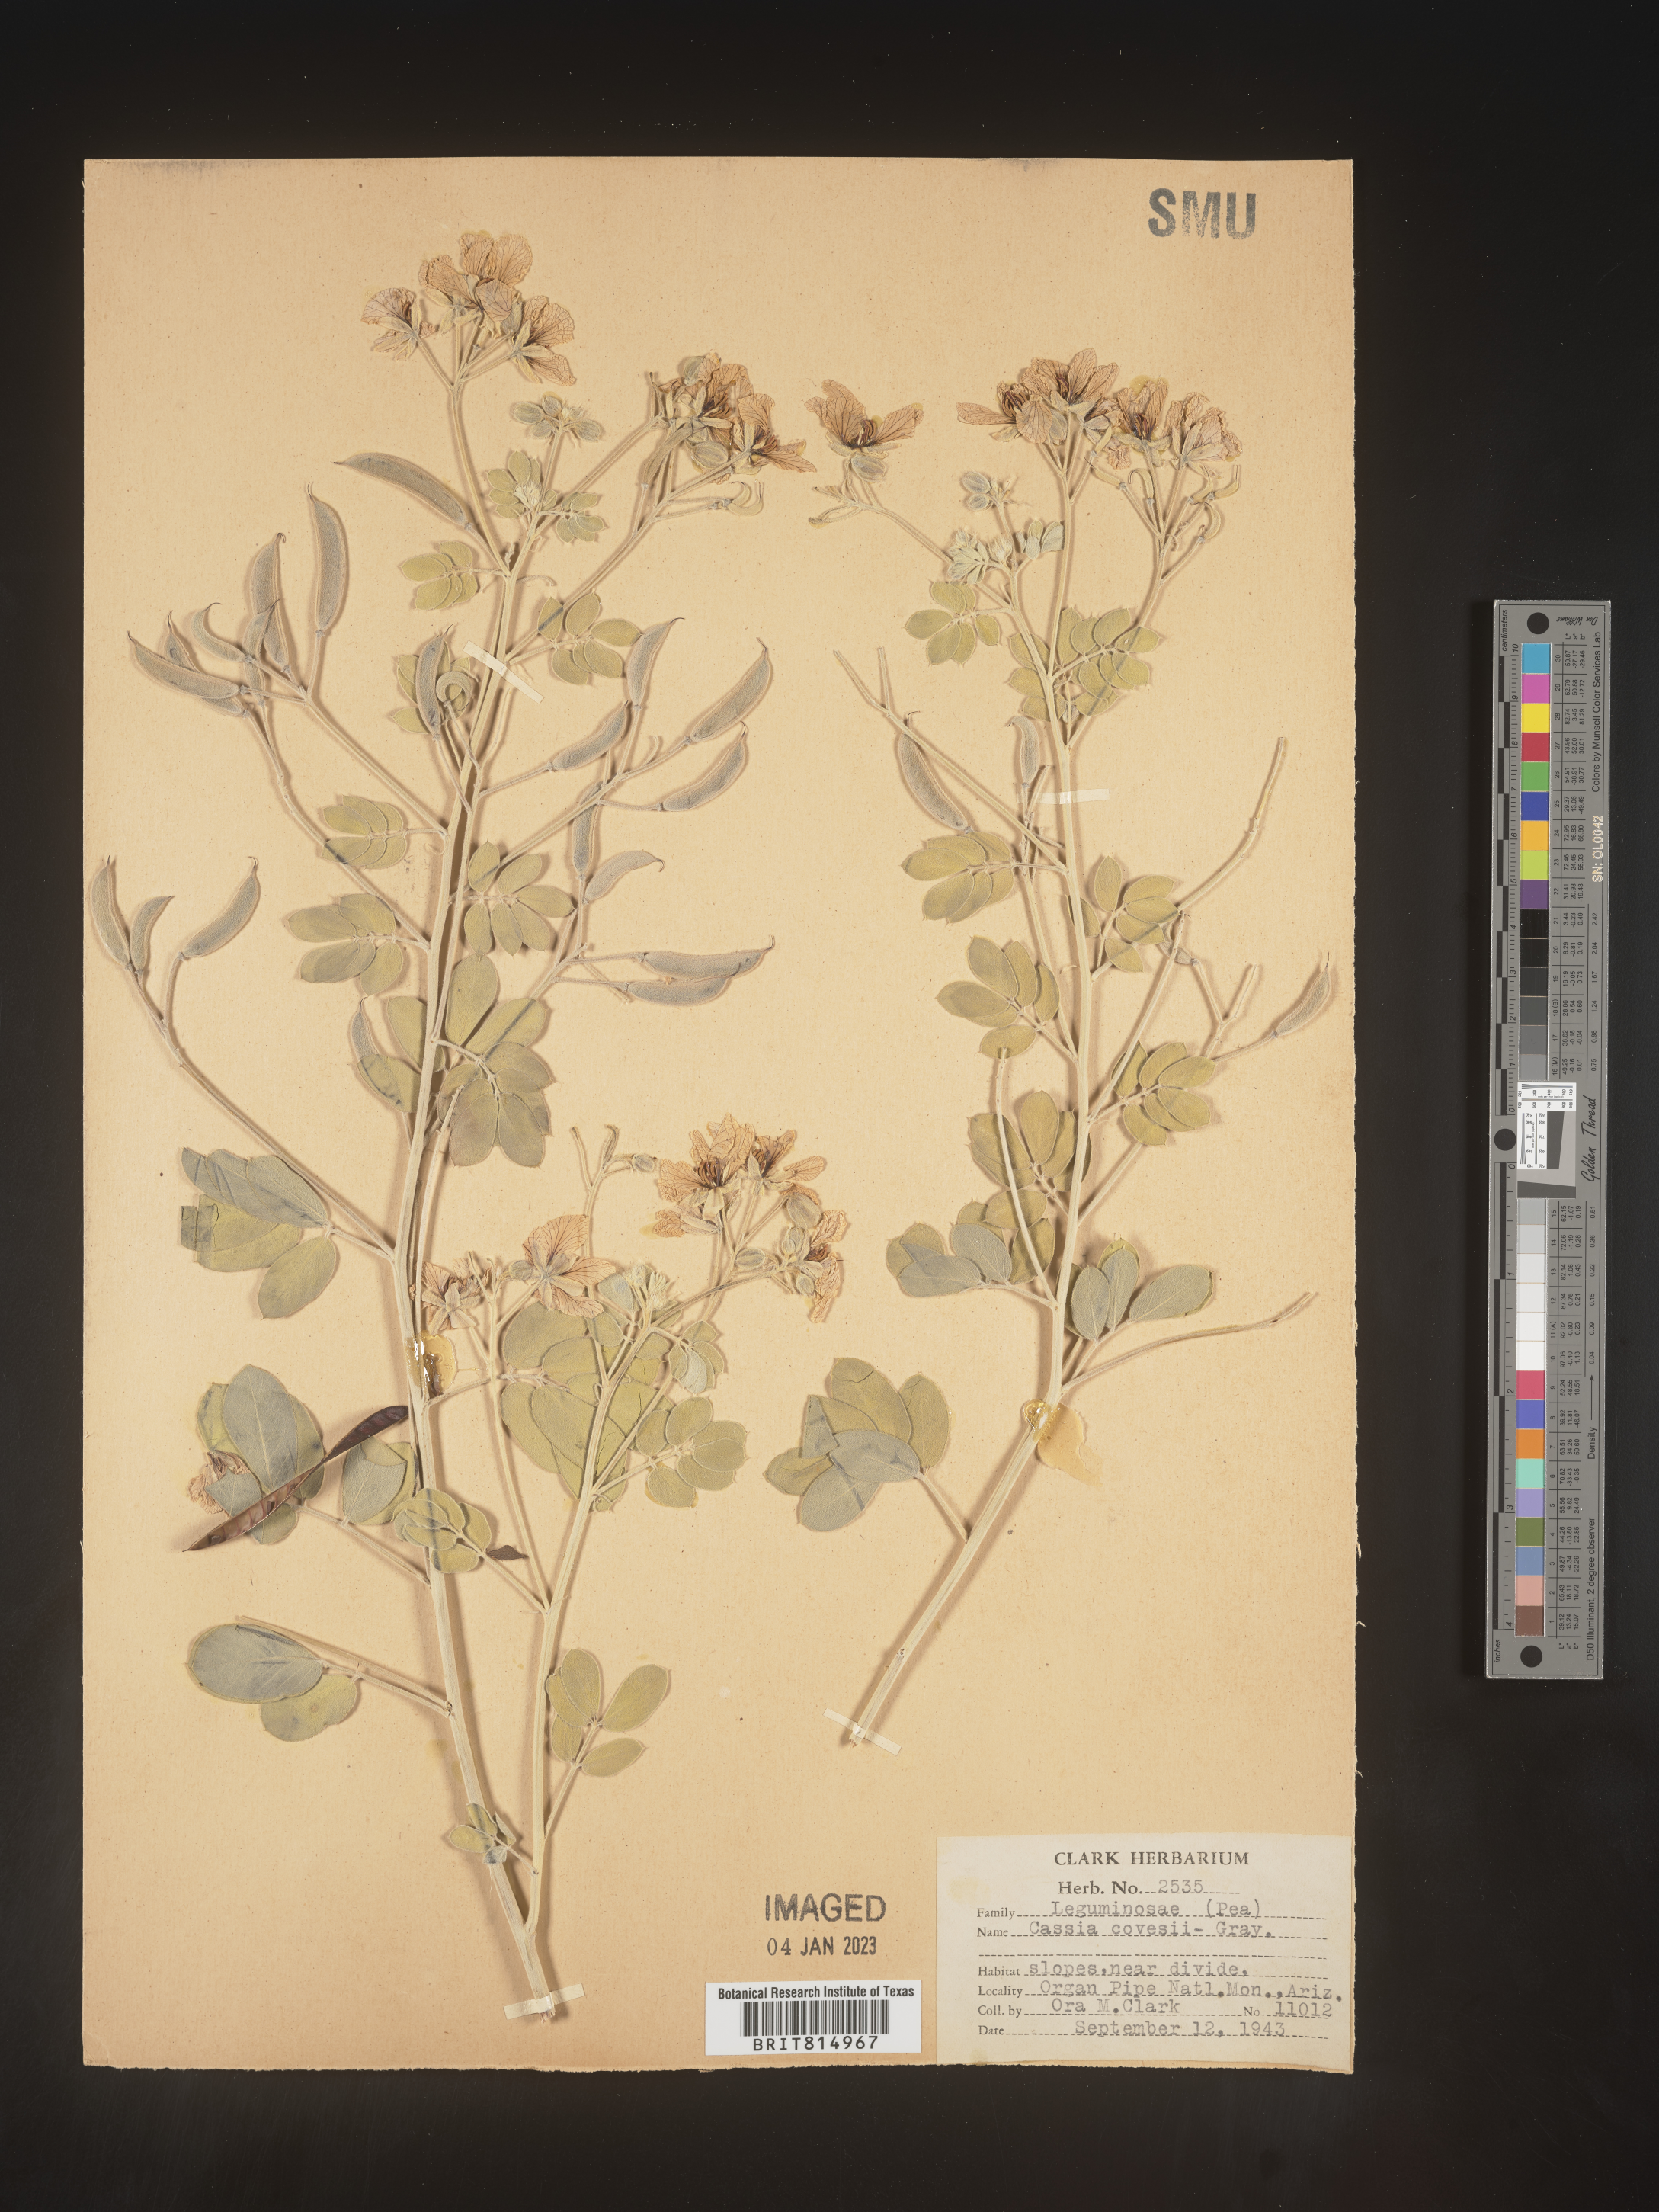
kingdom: Plantae
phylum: Tracheophyta
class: Magnoliopsida
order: Fabales
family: Fabaceae
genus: Cassia
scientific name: Cassia
